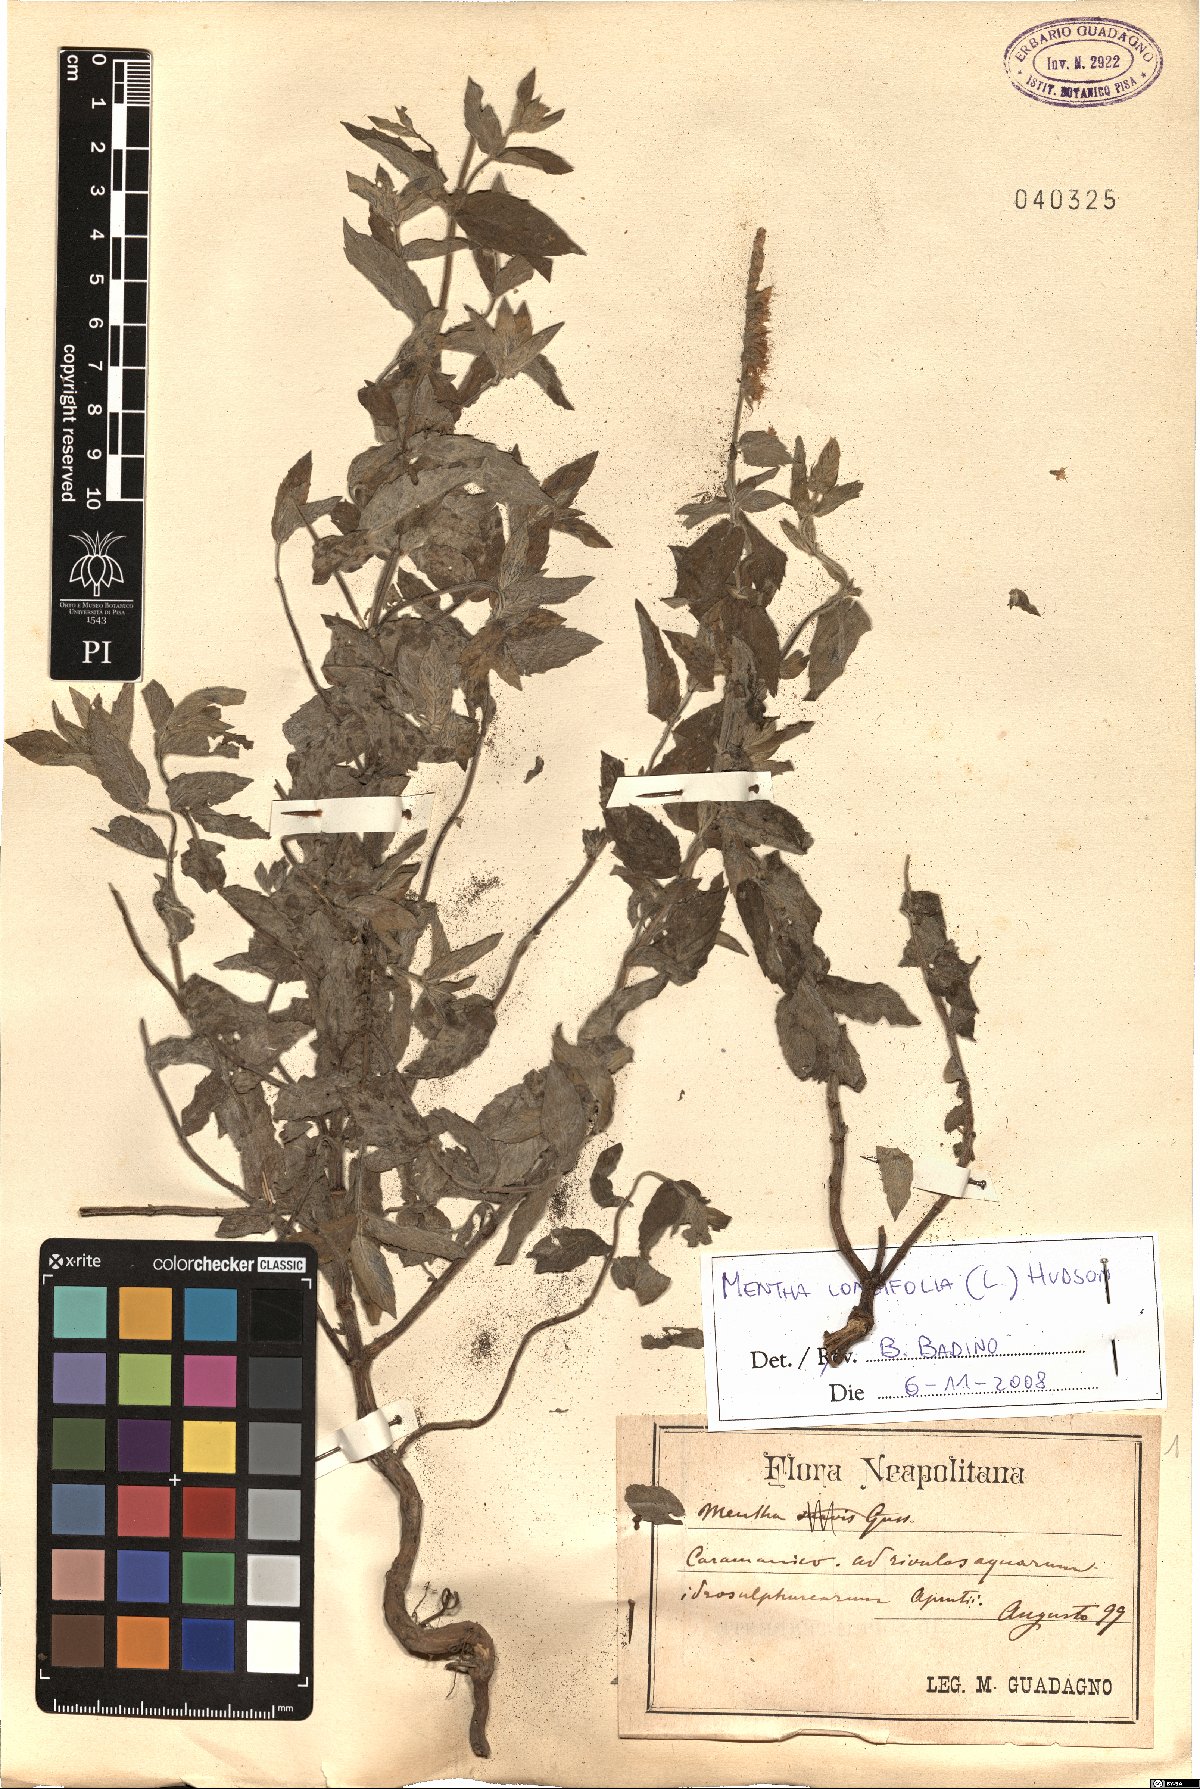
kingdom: Plantae
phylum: Tracheophyta
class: Magnoliopsida
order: Lamiales
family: Lamiaceae
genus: Mentha
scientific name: Mentha longifolia
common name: Horse mint
